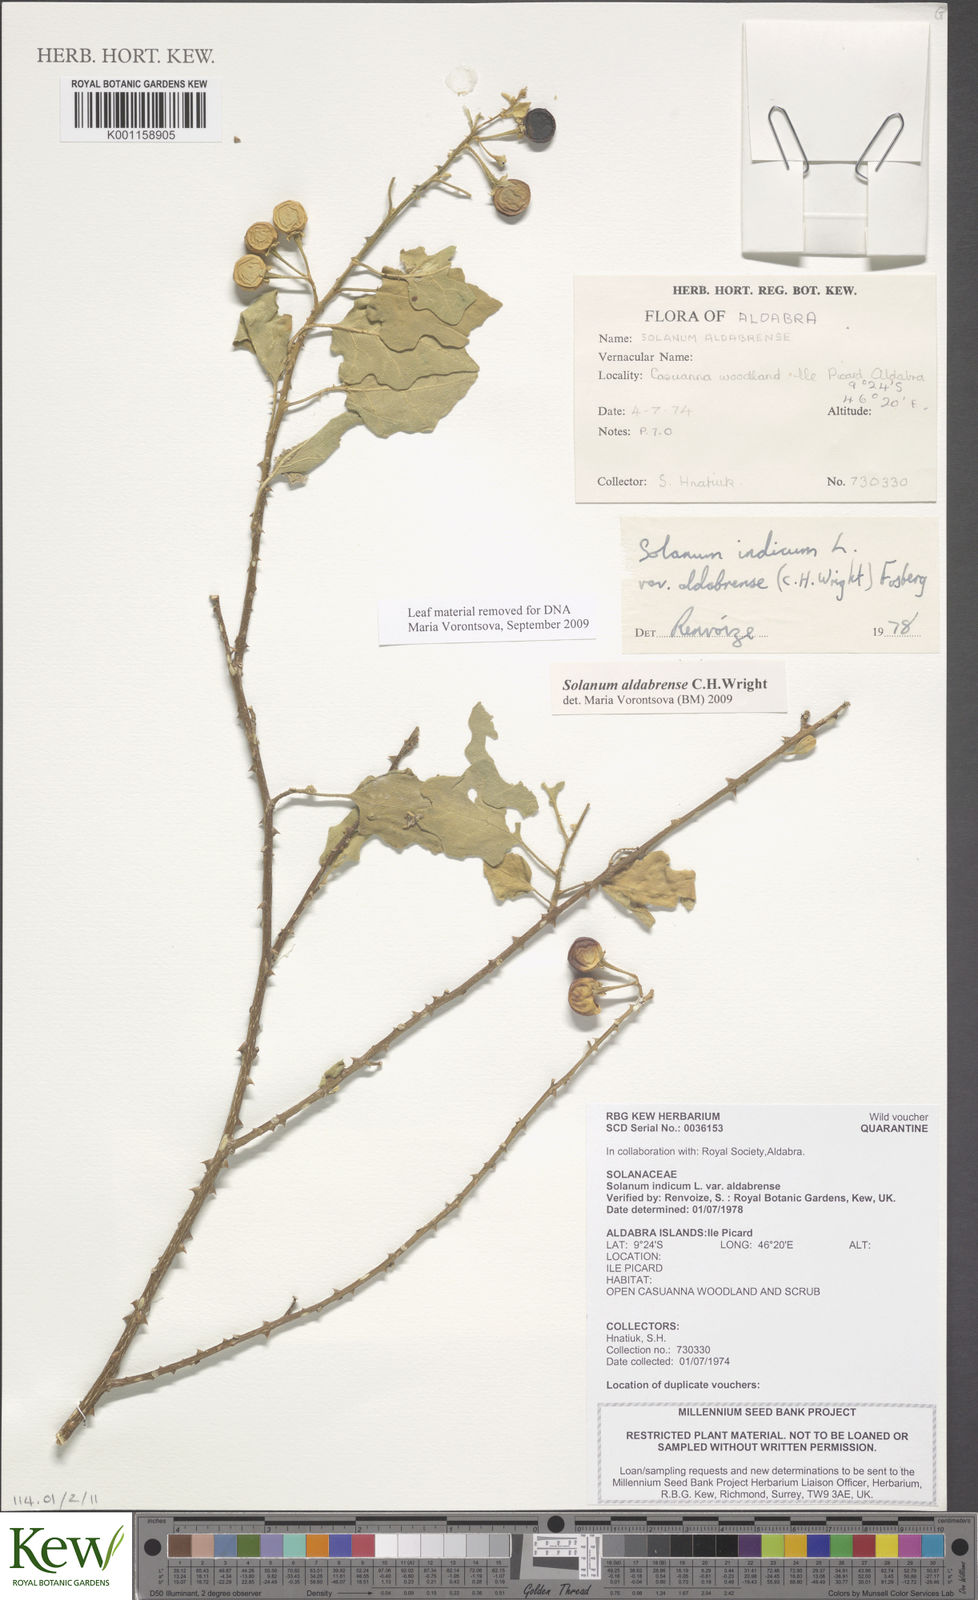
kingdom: Plantae
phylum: Tracheophyta
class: Magnoliopsida
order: Solanales
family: Solanaceae
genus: Solanum
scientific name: Solanum aldabrense
